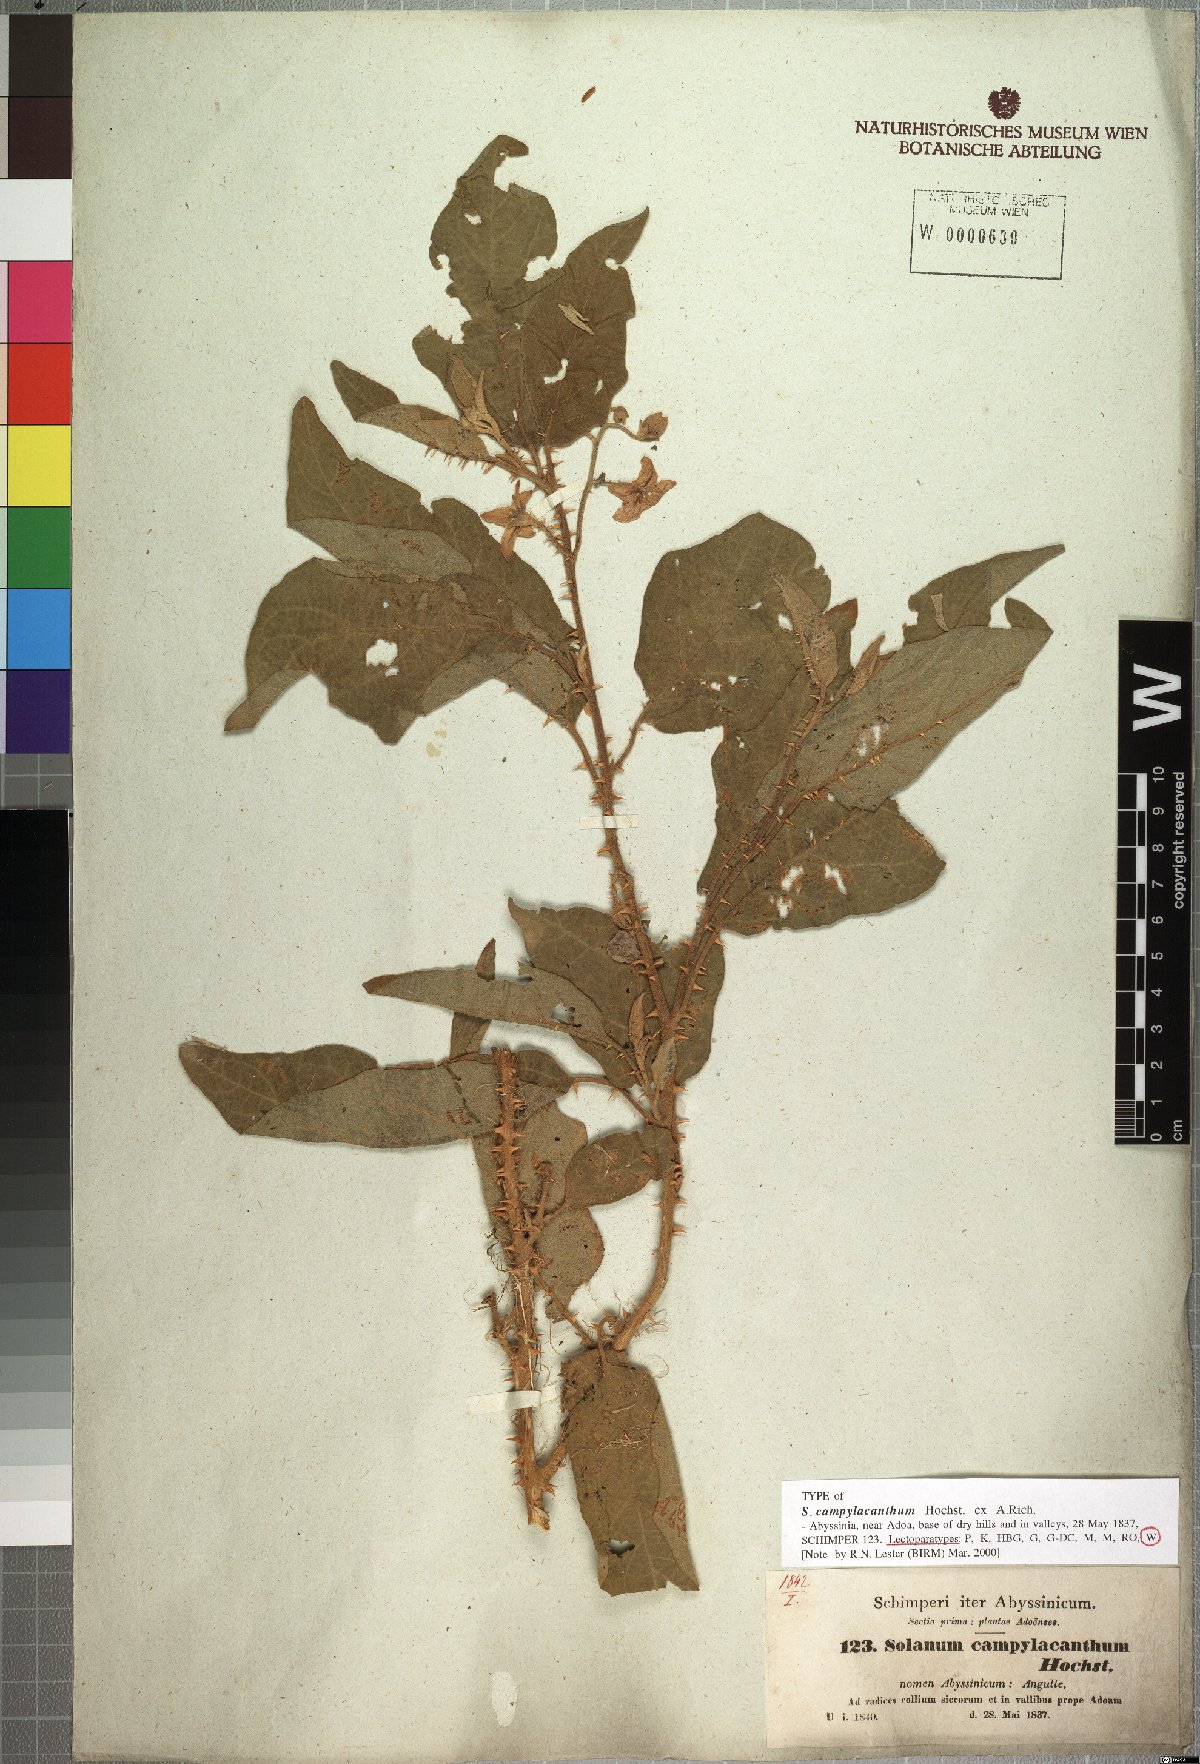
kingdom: Plantae
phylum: Tracheophyta
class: Magnoliopsida
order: Solanales
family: Solanaceae
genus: Solanum
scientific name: Solanum campylacanthum
